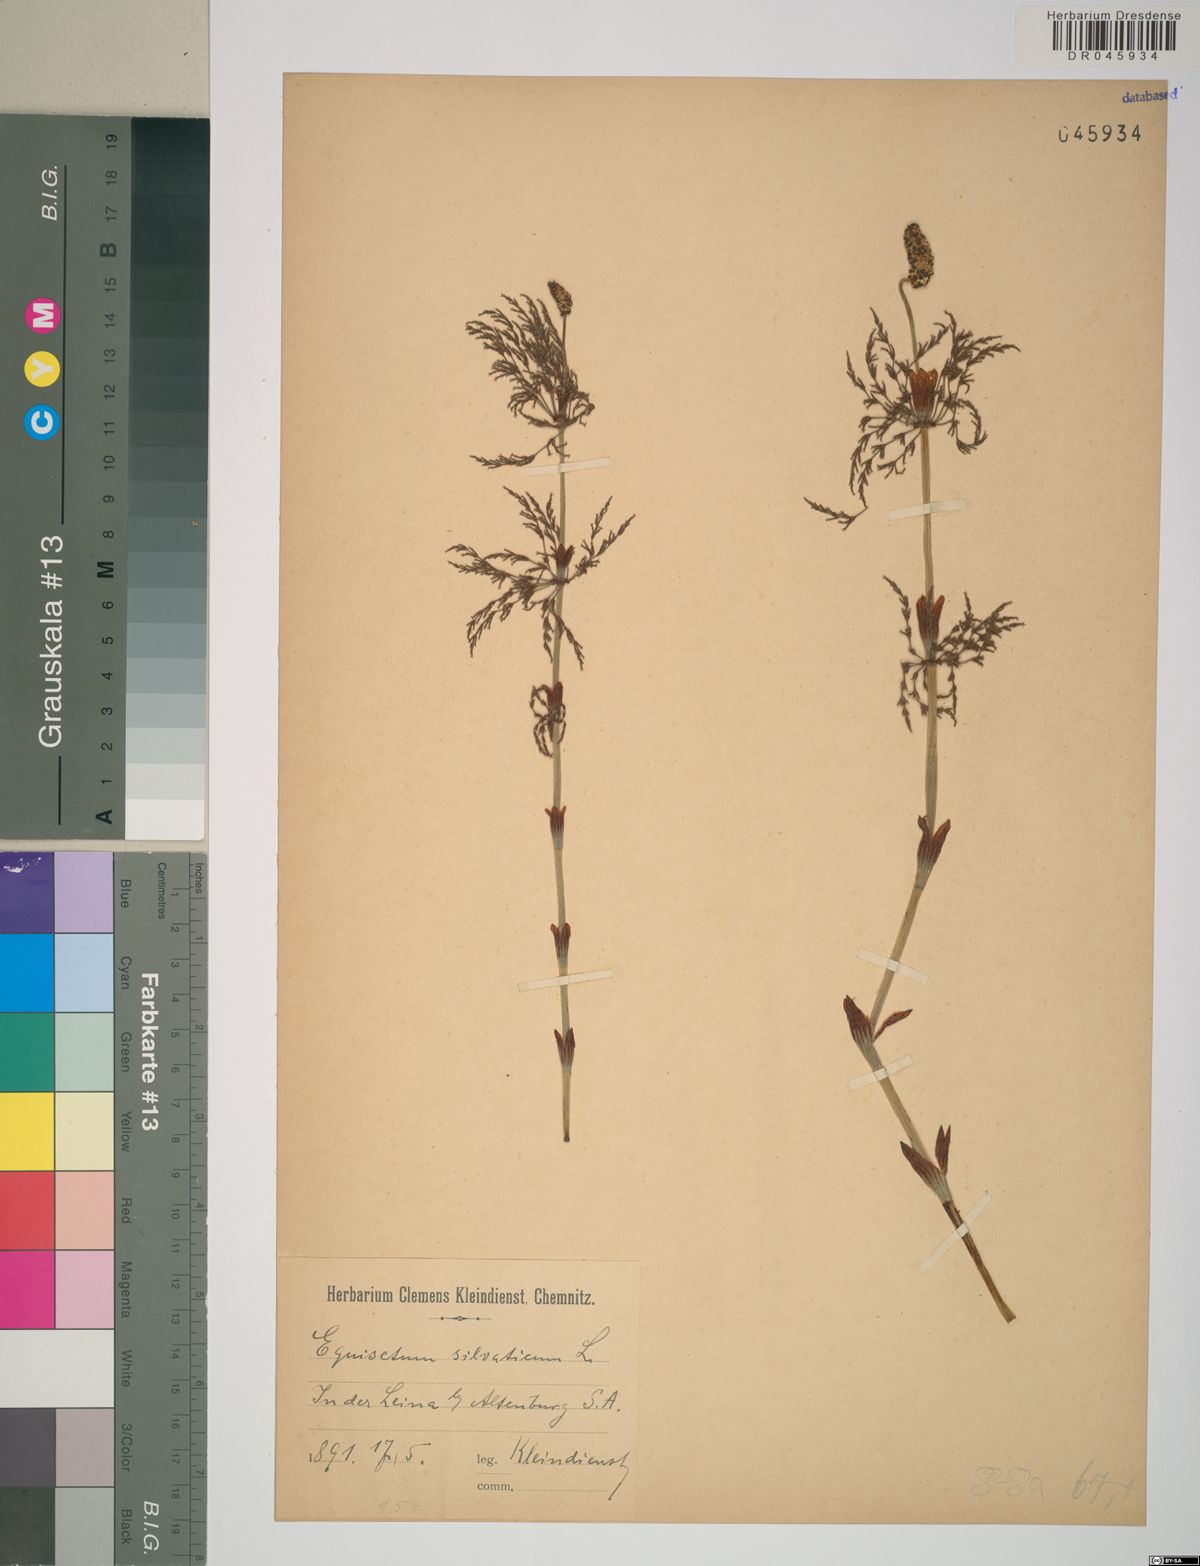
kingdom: Plantae
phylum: Tracheophyta
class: Polypodiopsida
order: Equisetales
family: Equisetaceae
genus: Equisetum
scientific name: Equisetum sylvaticum
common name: Wood horsetail
